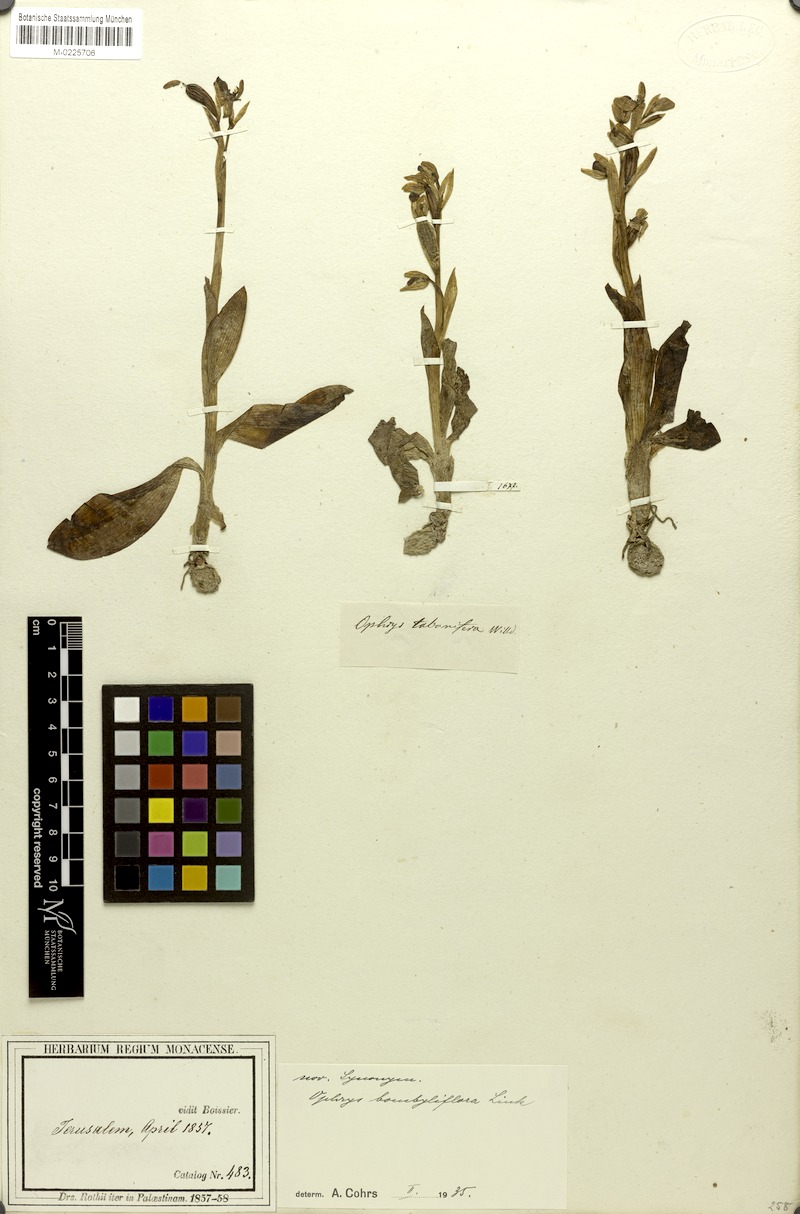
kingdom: Plantae
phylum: Tracheophyta
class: Liliopsida
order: Asparagales
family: Orchidaceae
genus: Ophrys
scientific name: Ophrys bombyliflora
